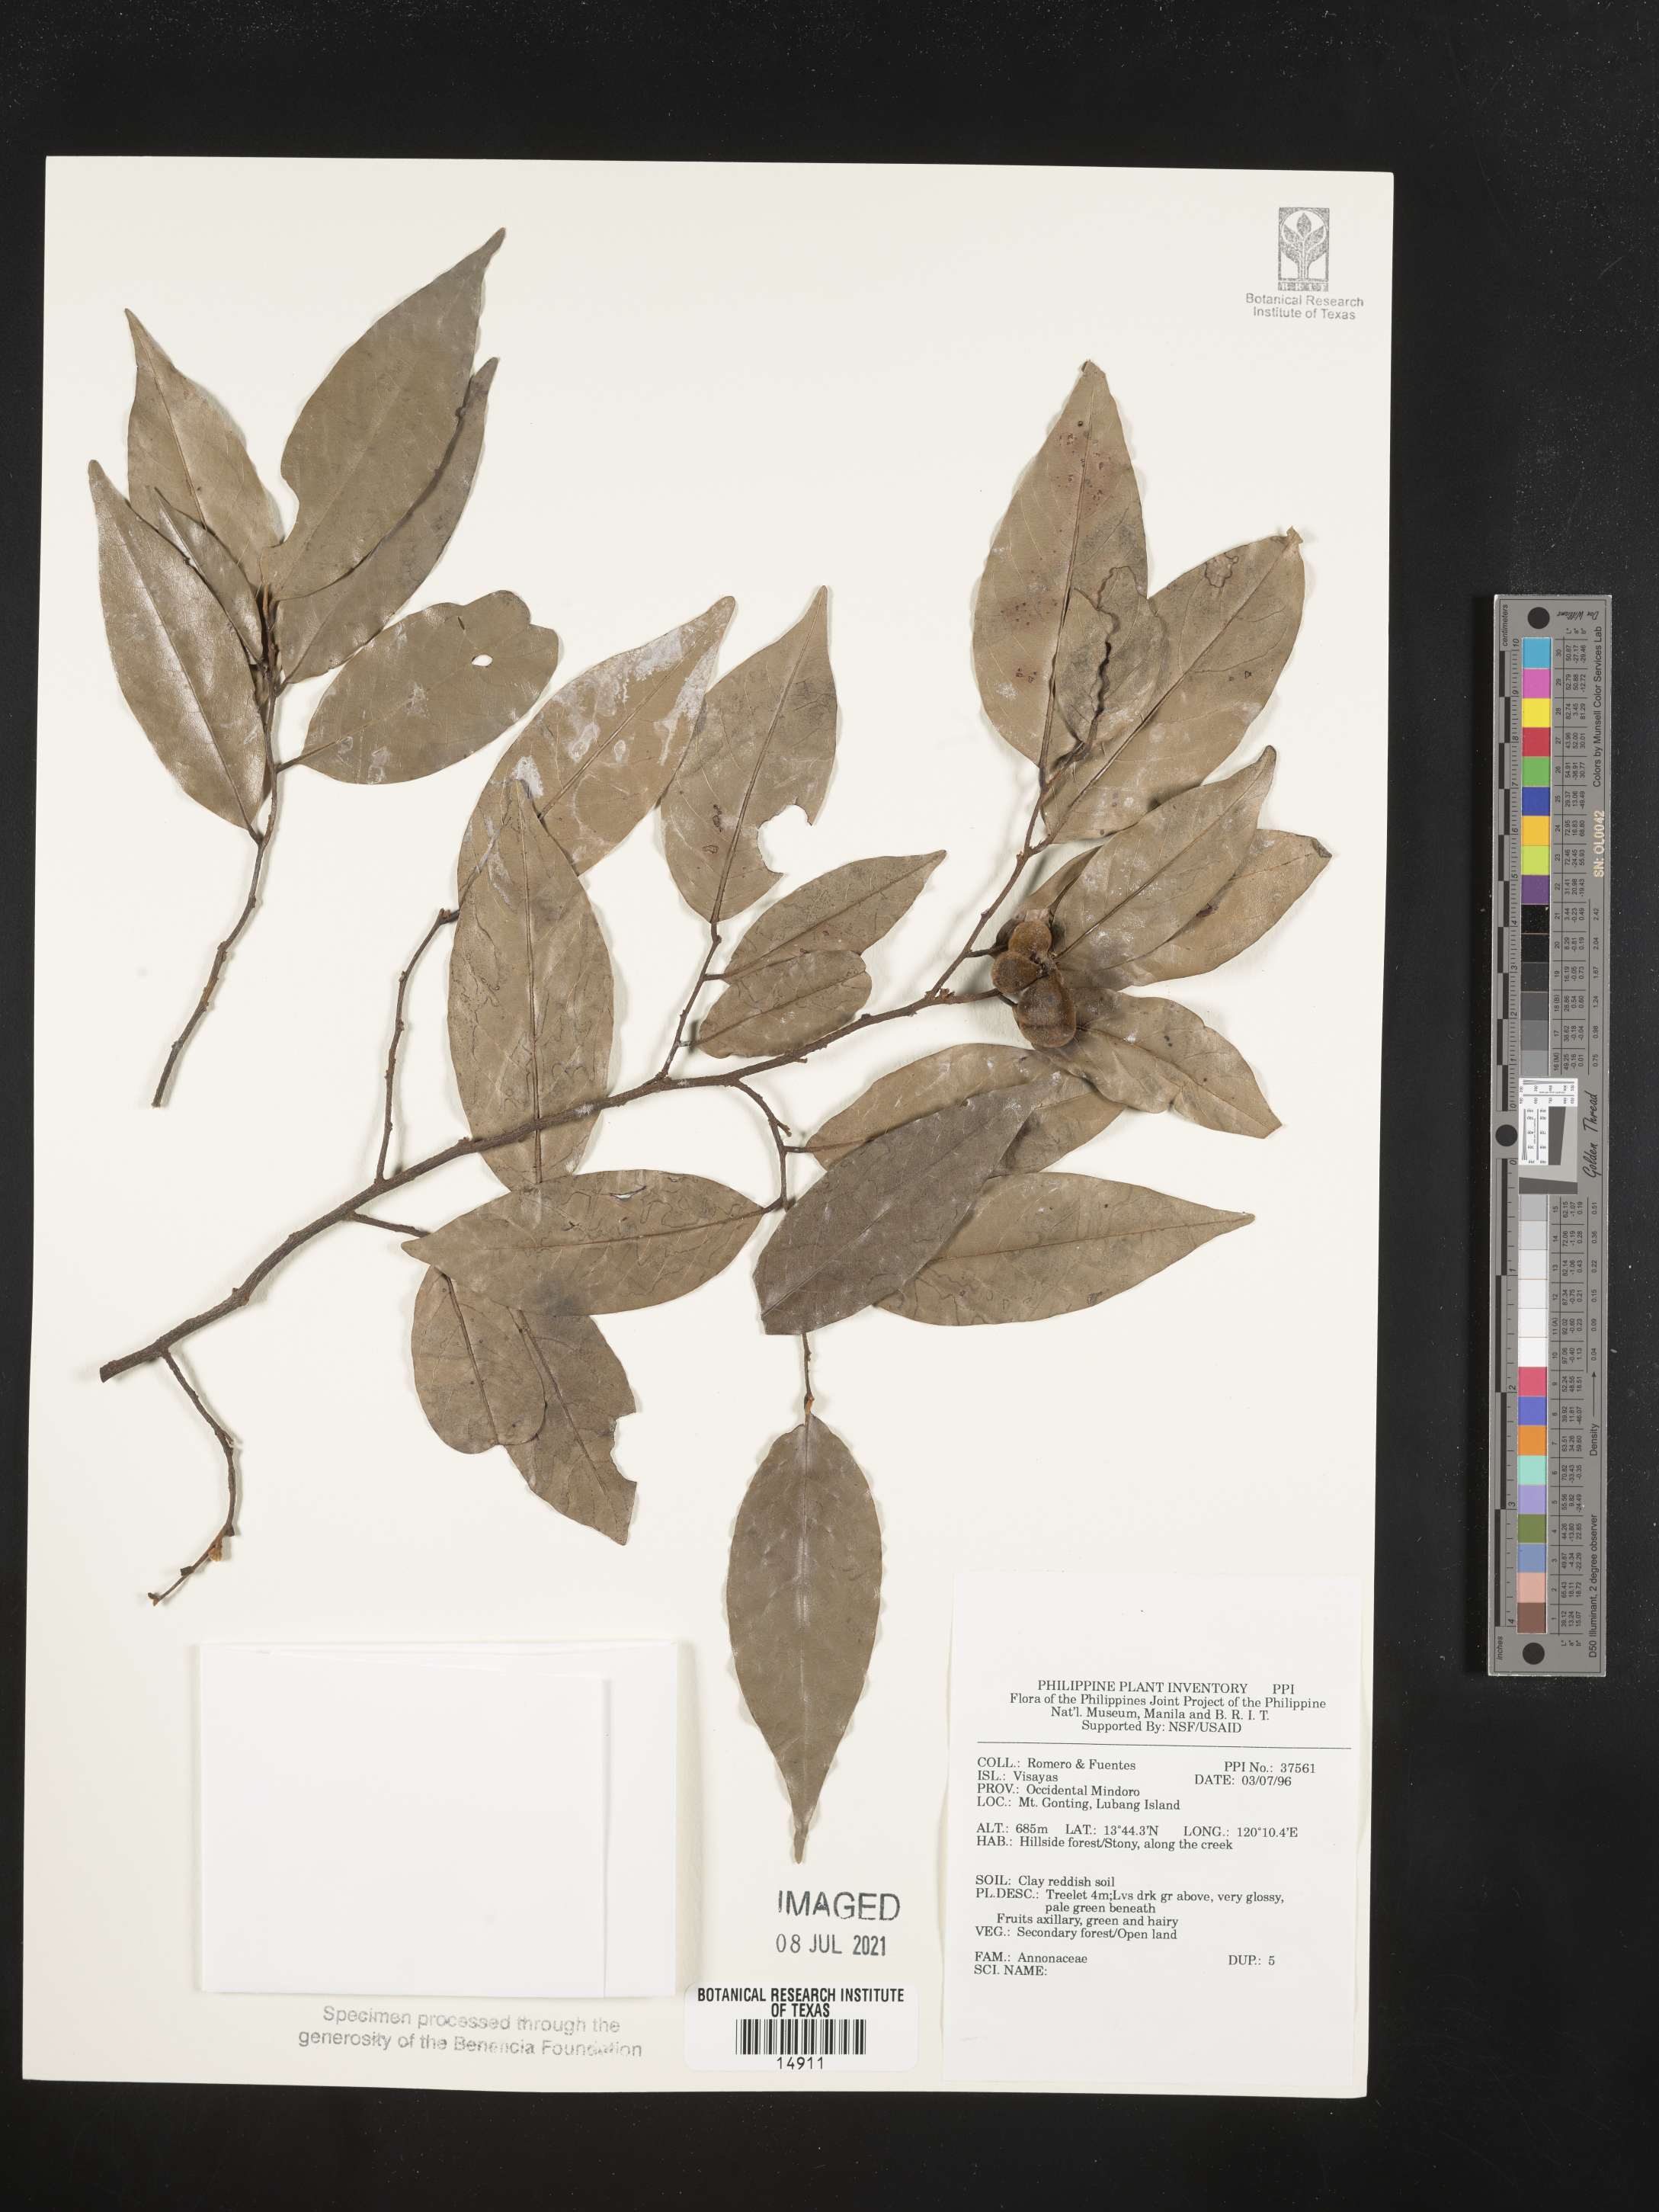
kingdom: Plantae
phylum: Tracheophyta
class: Magnoliopsida
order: Magnoliales
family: Annonaceae
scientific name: Annonaceae
